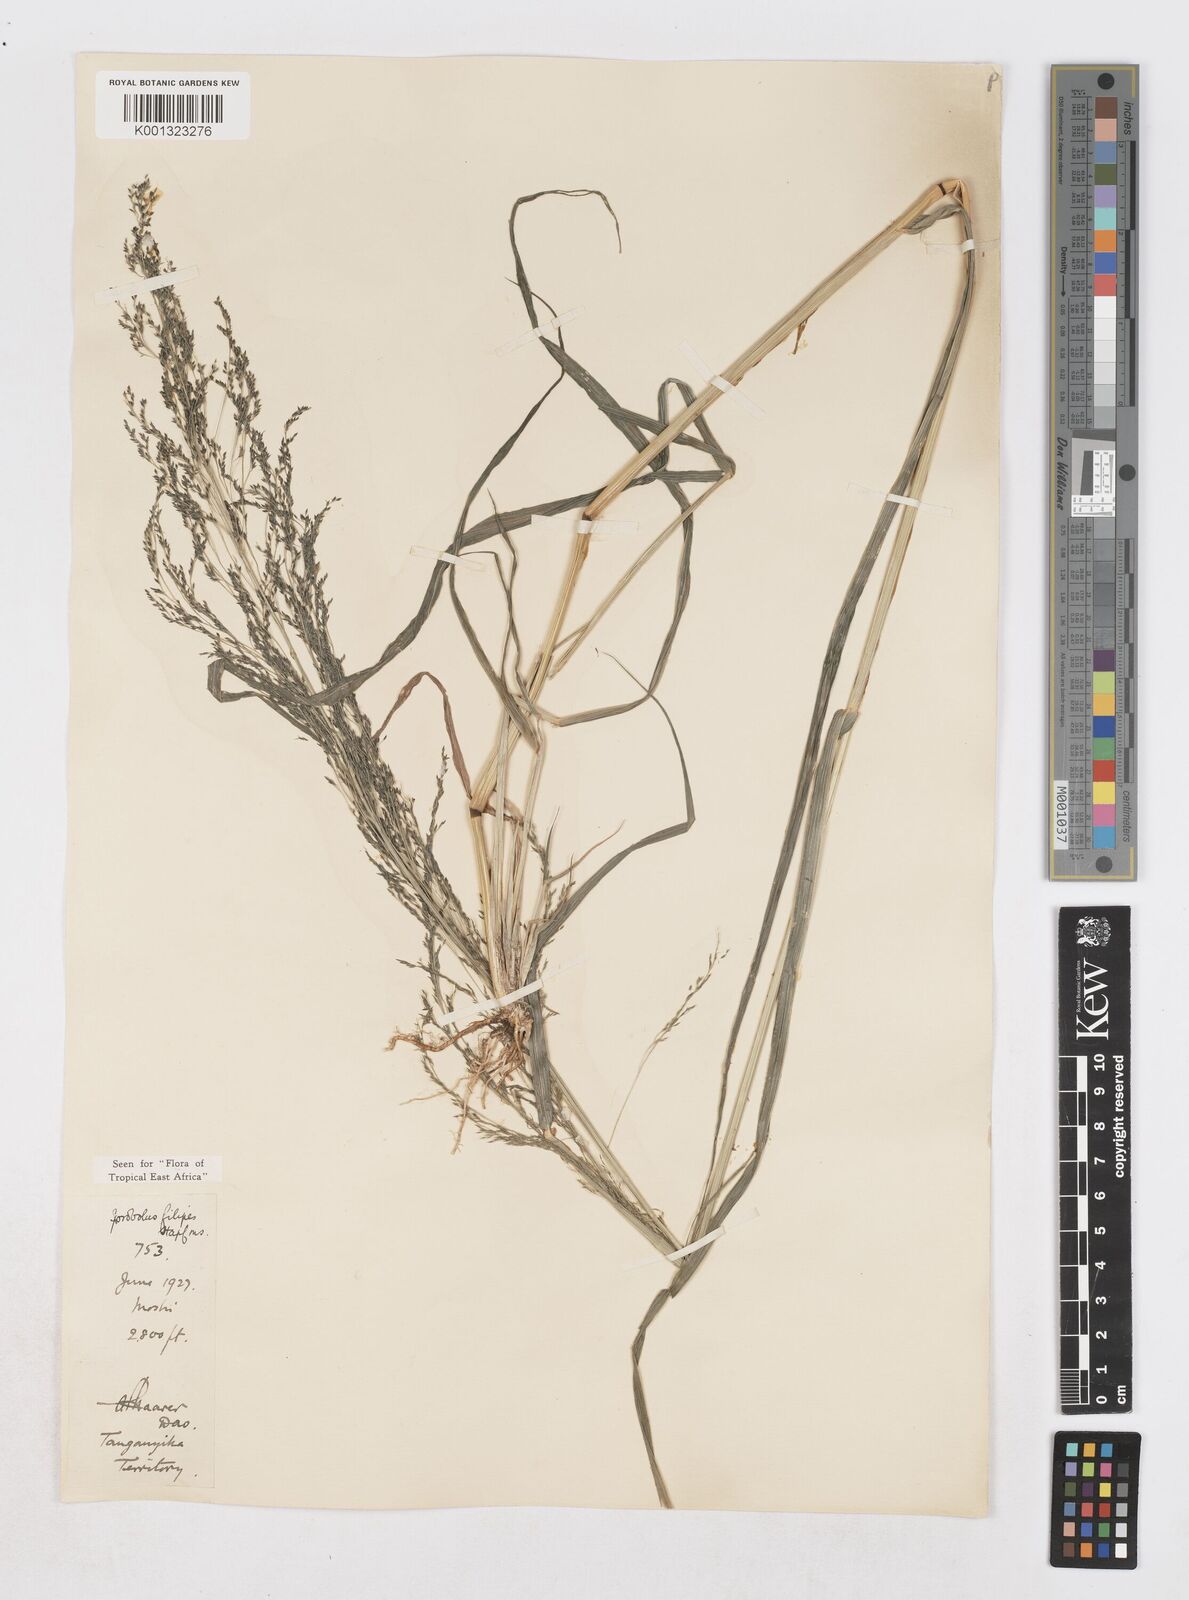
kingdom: Plantae
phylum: Tracheophyta
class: Liliopsida
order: Poales
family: Poaceae
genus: Sporobolus
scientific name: Sporobolus agrostoides
